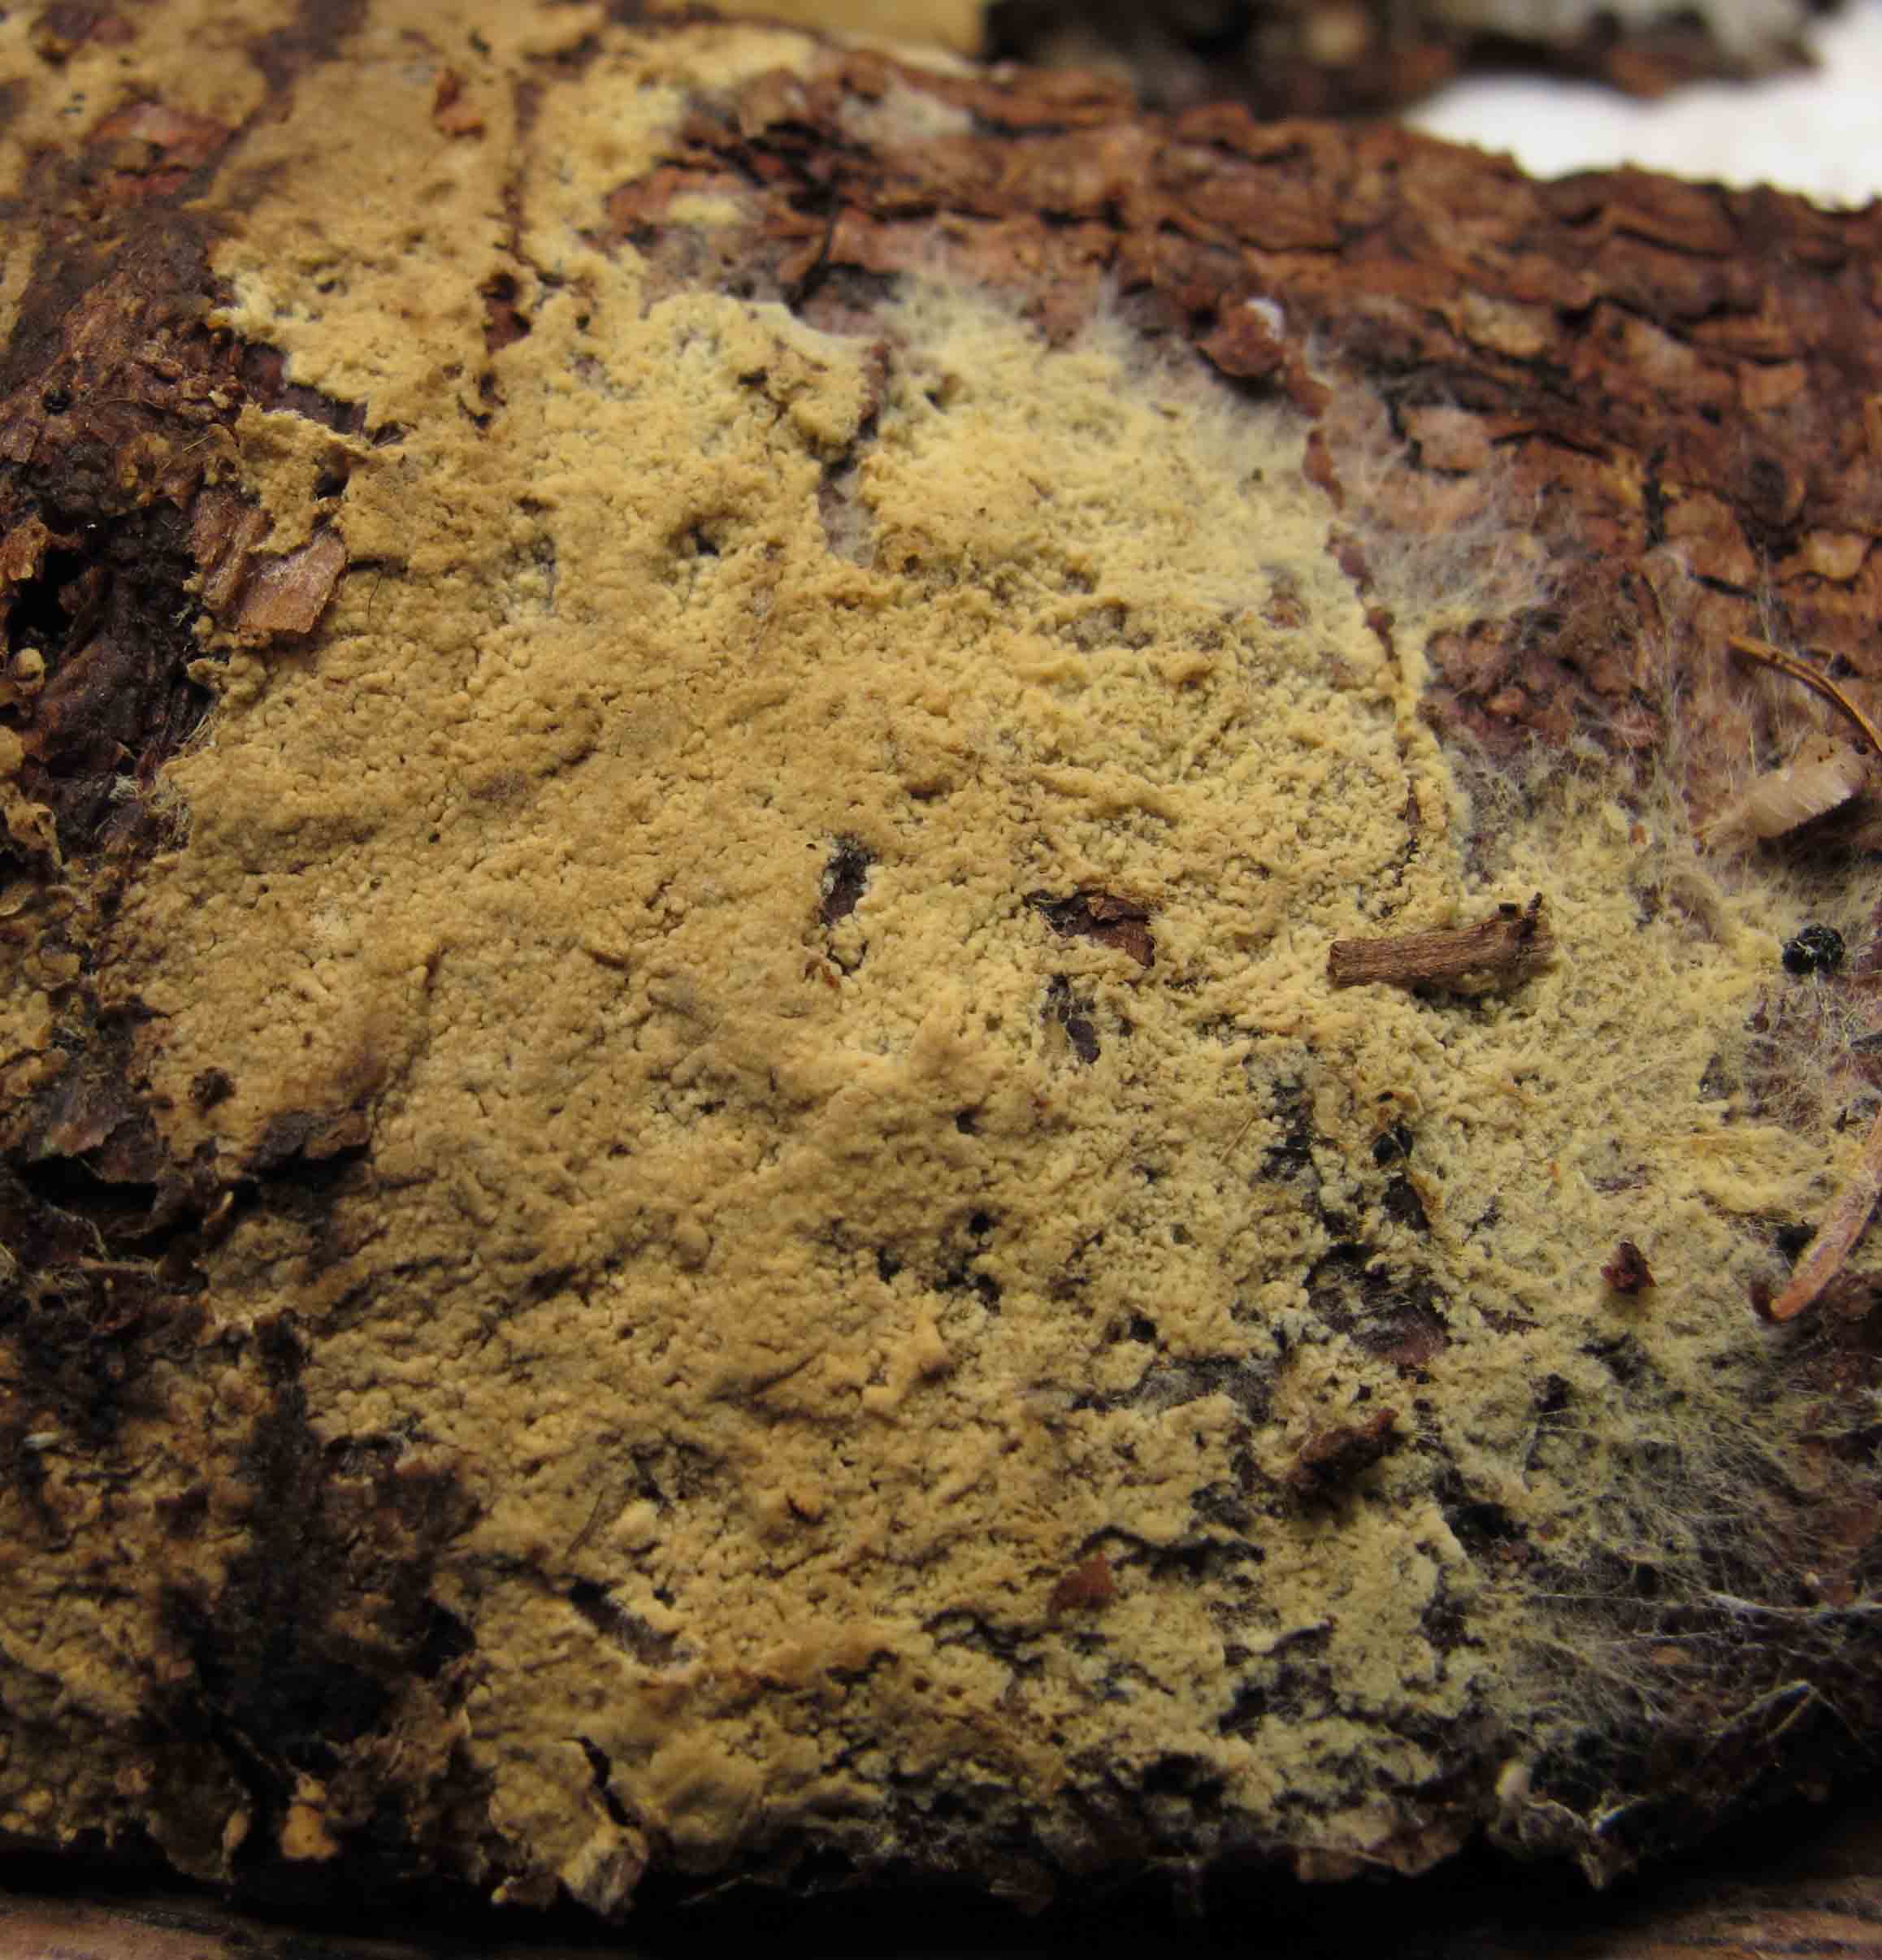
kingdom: Fungi
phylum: Basidiomycota
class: Agaricomycetes
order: Boletales
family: Coniophoraceae
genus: Coniophora
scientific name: Coniophora arida
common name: tynd tømmersvamp
